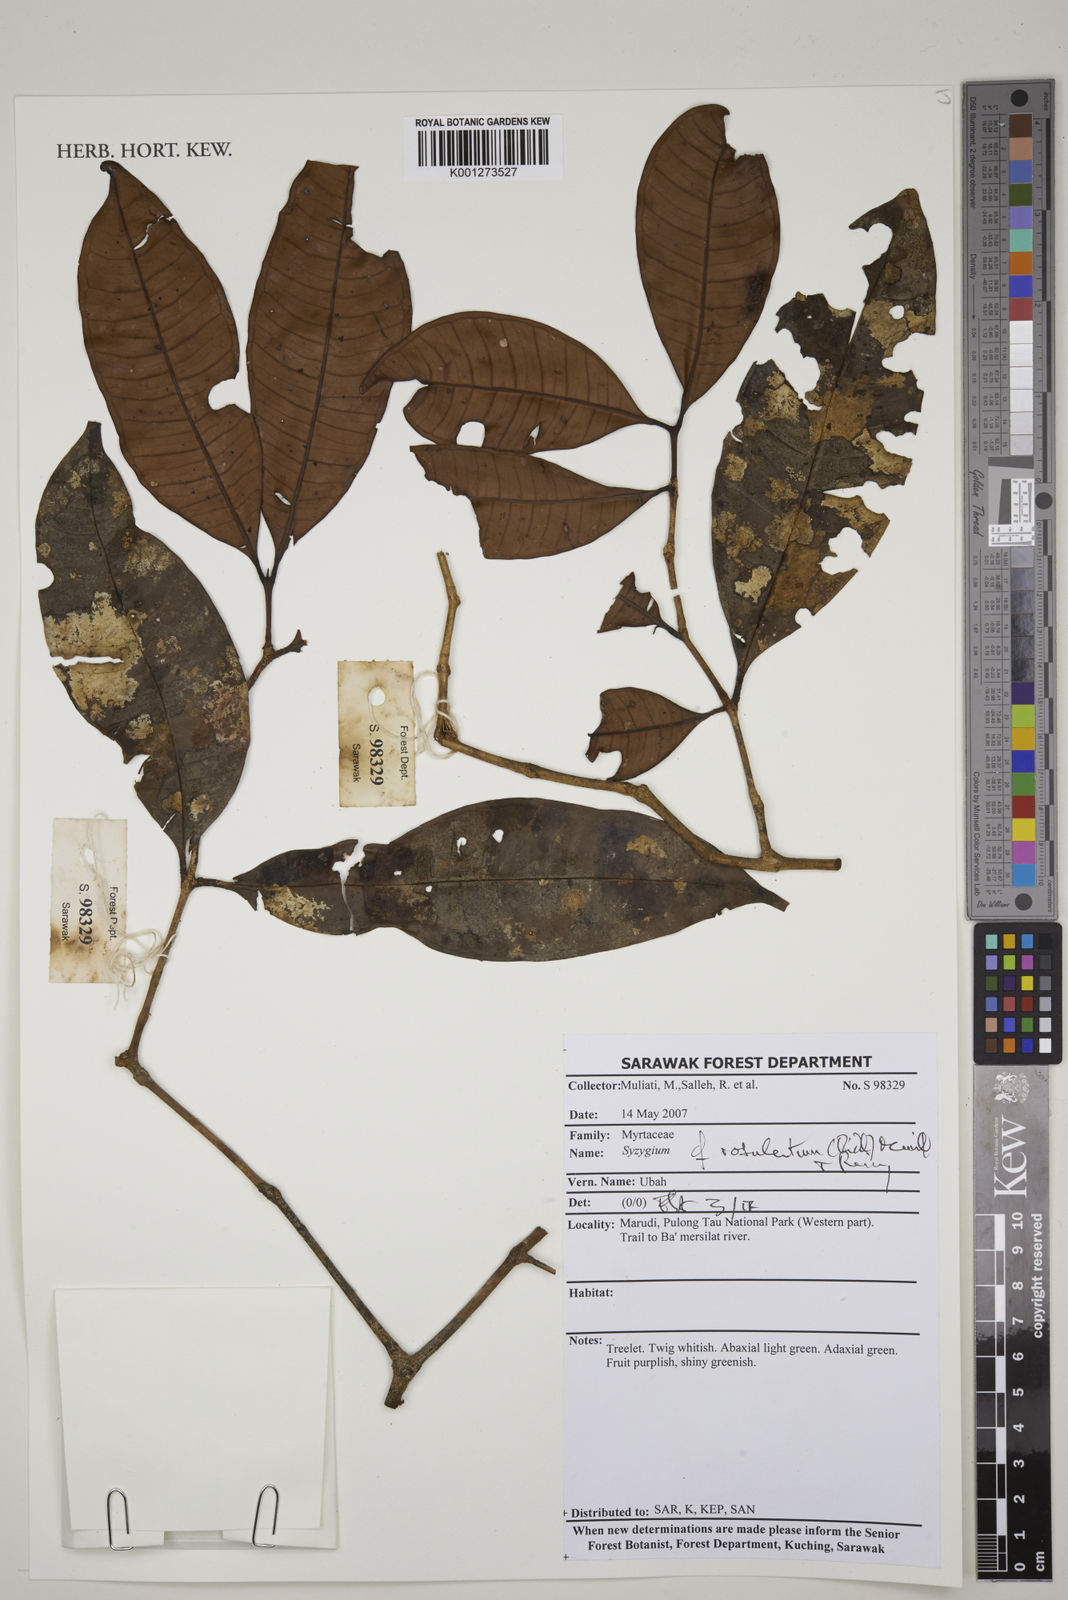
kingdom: Plantae
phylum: Tracheophyta
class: Magnoliopsida
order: Myrtales
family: Myrtaceae
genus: Syzygium
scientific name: Syzygium rosulentum
